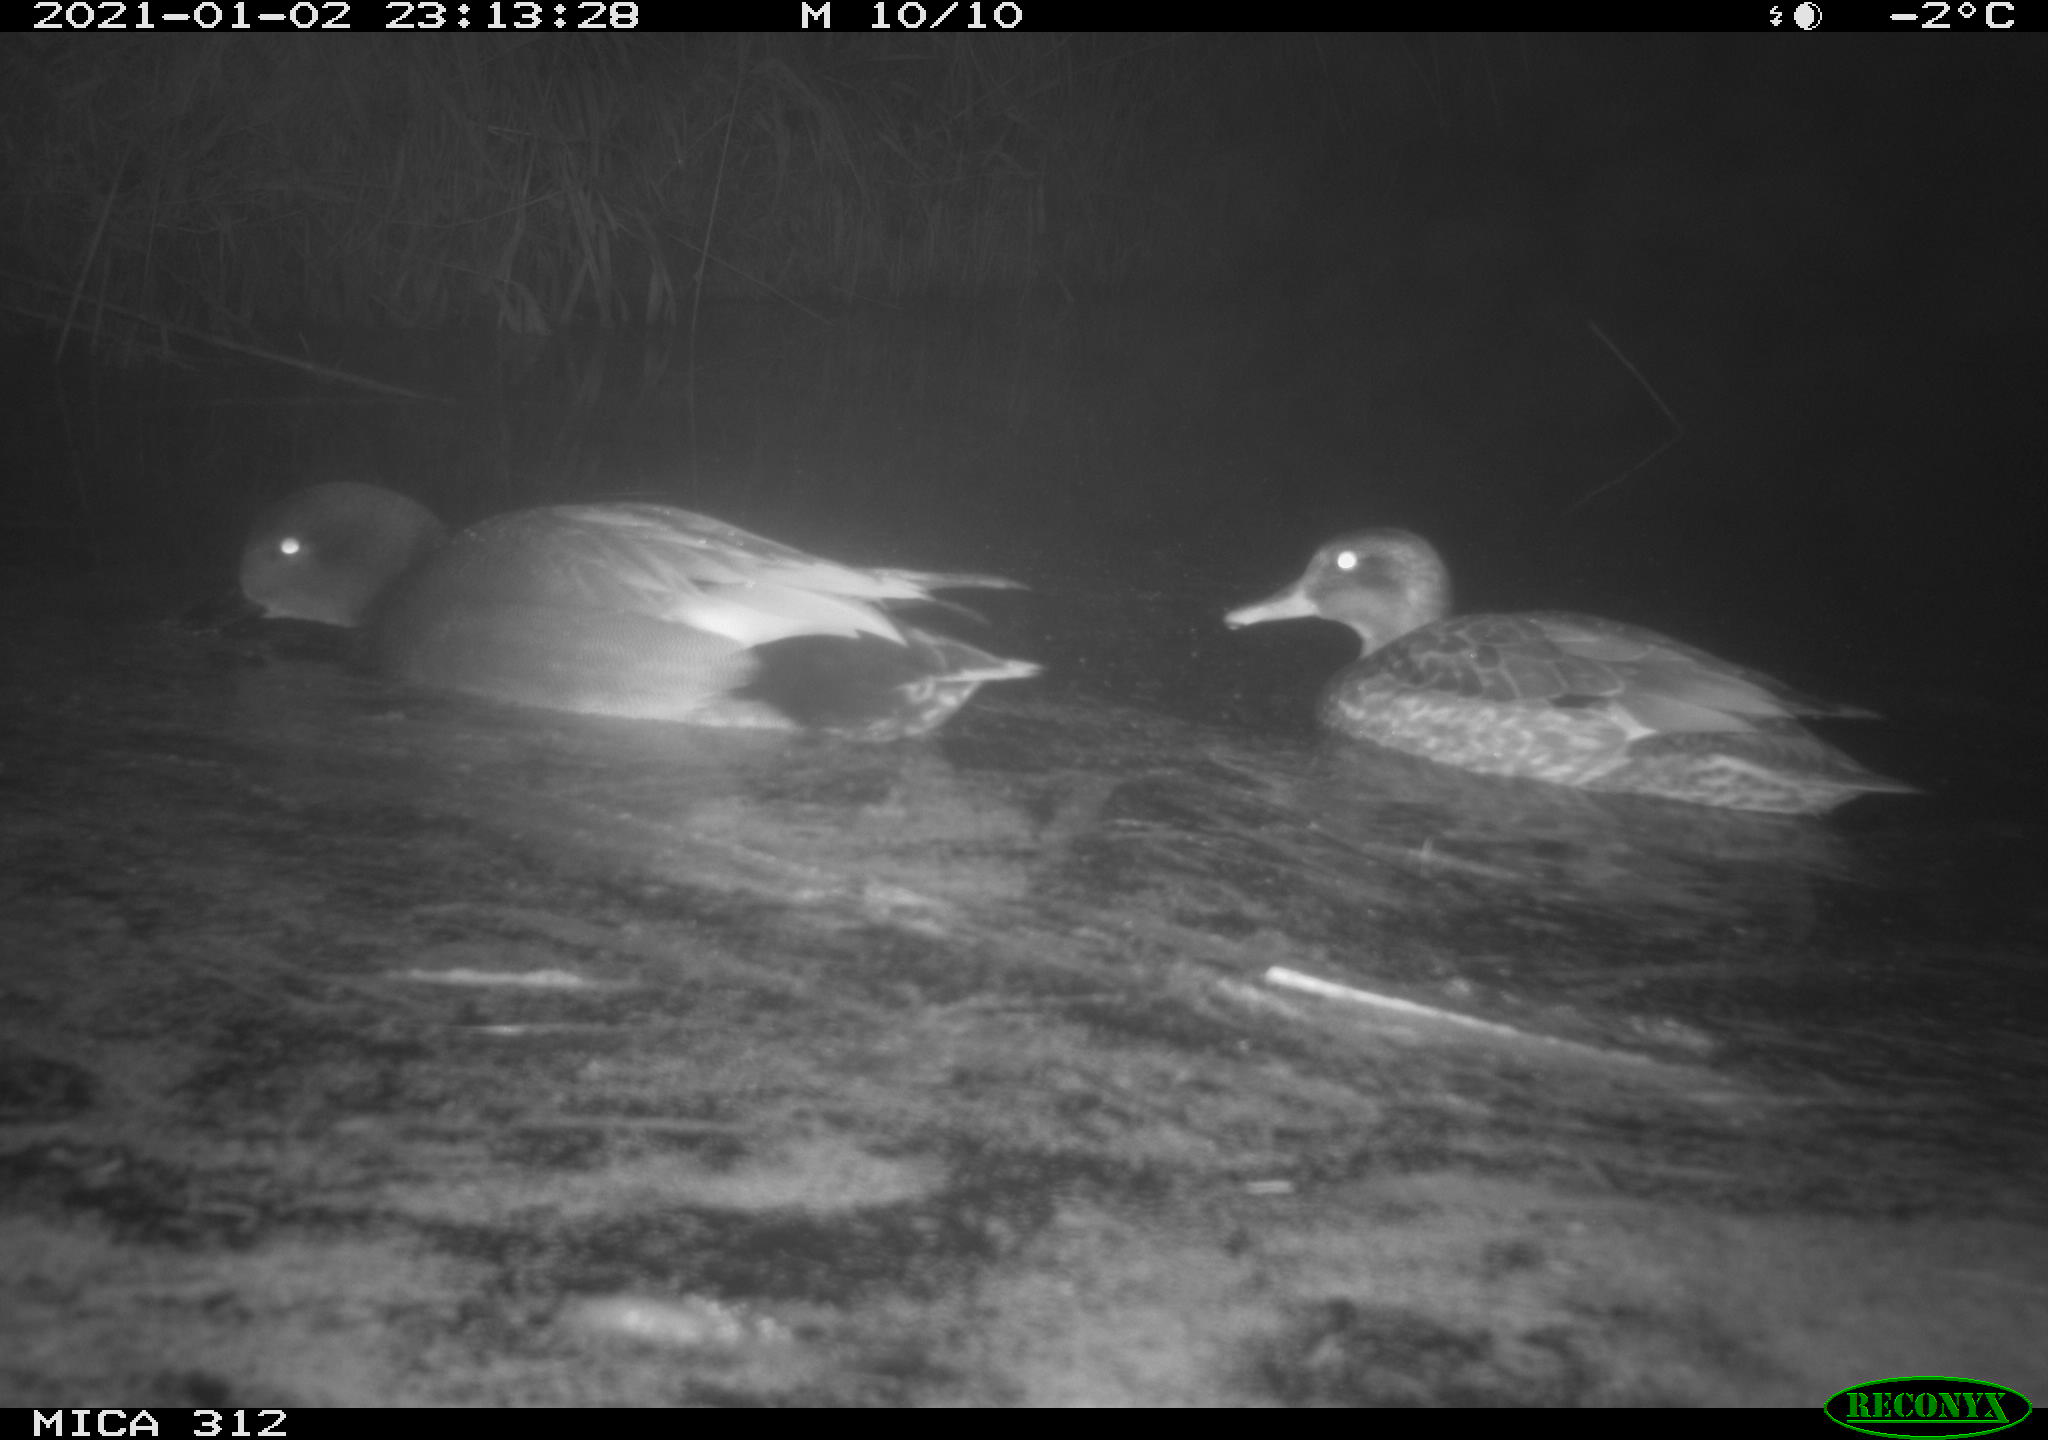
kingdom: Animalia
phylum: Chordata
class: Aves
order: Anseriformes
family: Anatidae
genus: Mareca
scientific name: Mareca strepera
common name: Gadwall
